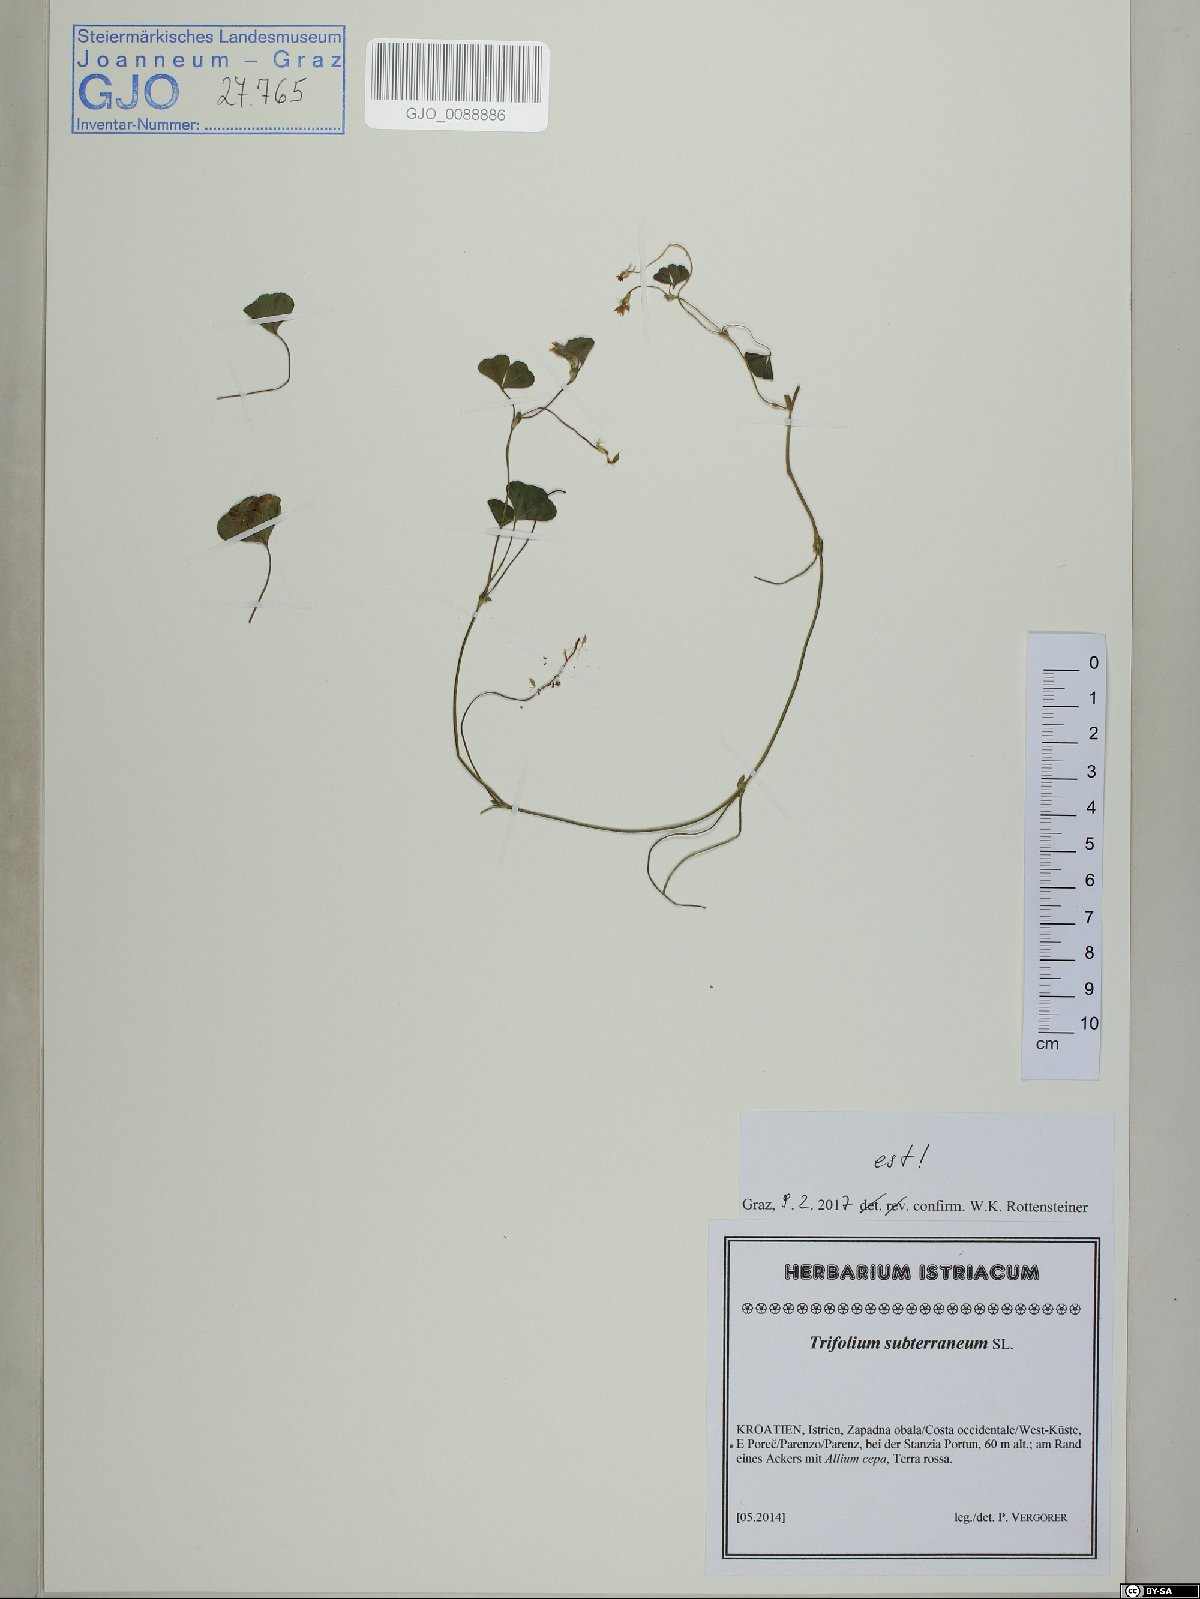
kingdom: Plantae
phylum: Tracheophyta
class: Magnoliopsida
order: Fabales
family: Fabaceae
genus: Trifolium
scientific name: Trifolium subterraneum
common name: Subterranean clover
